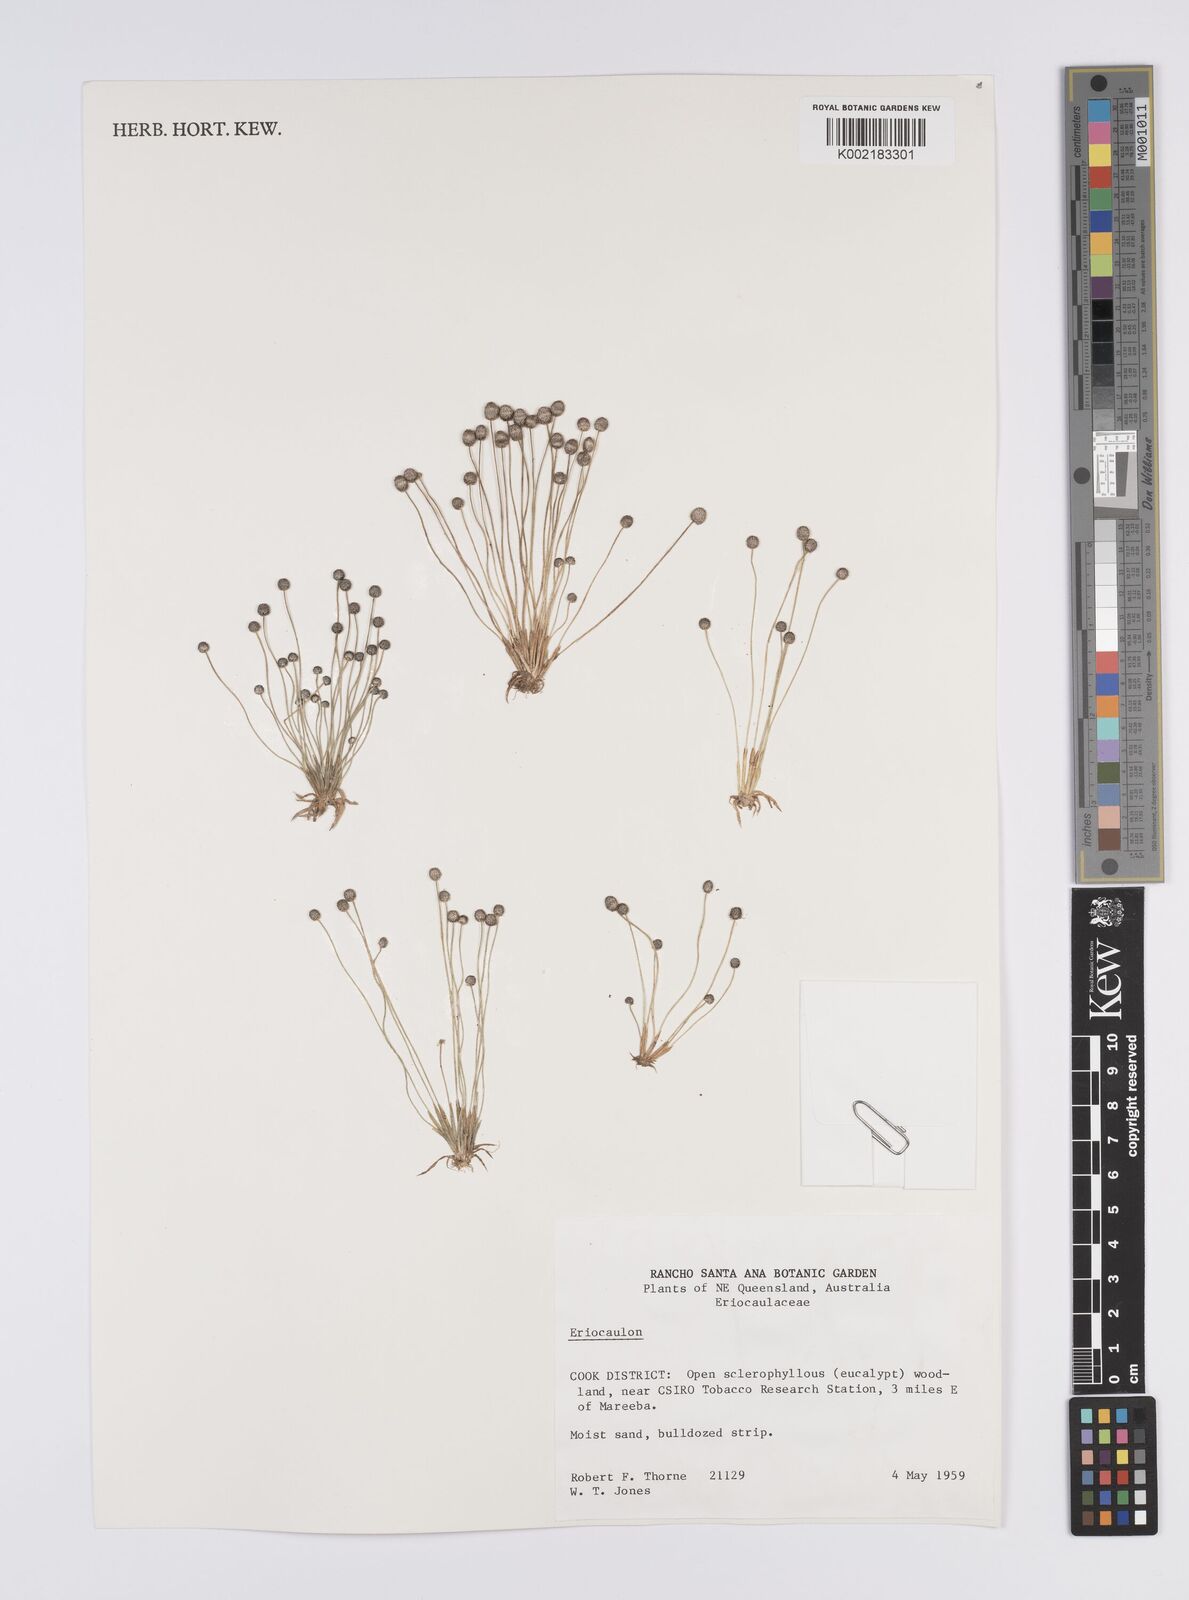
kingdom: Plantae
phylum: Tracheophyta
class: Liliopsida
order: Poales
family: Eriocaulaceae
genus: Eriocaulon
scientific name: Eriocaulon
